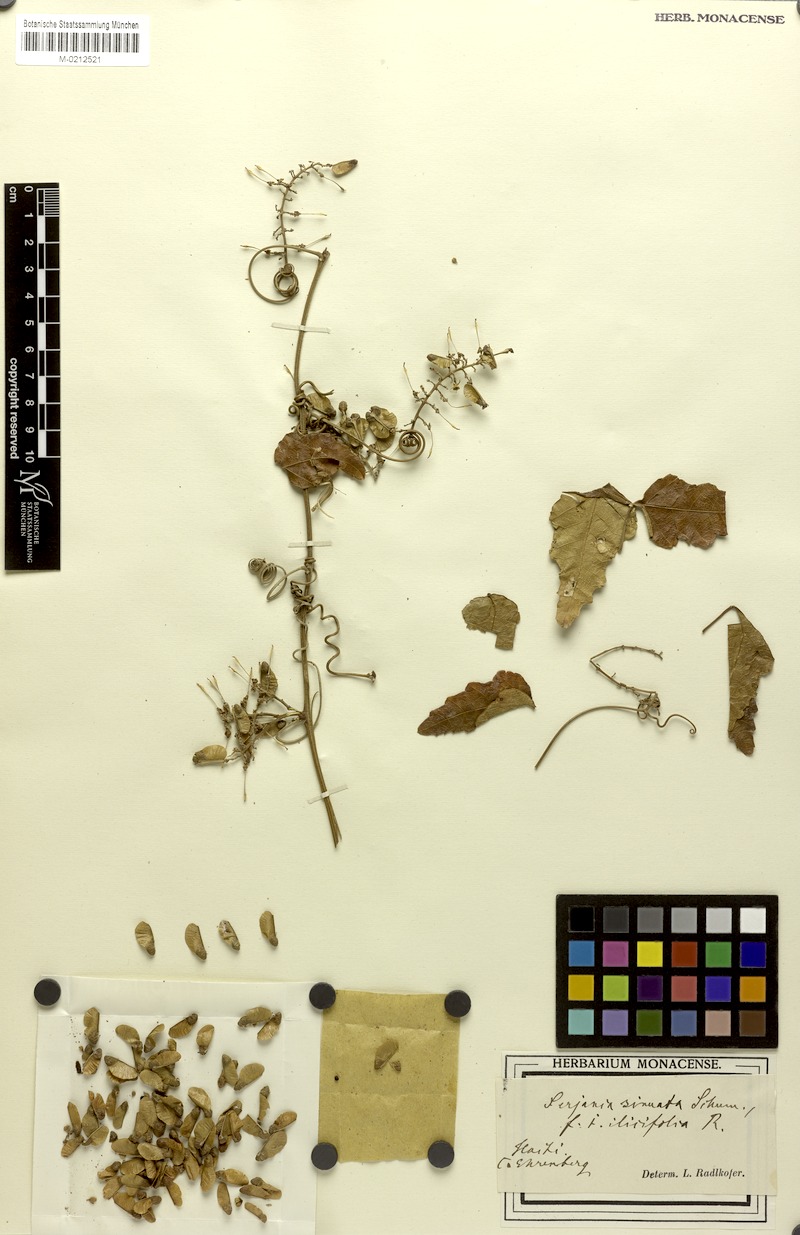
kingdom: Plantae
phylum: Tracheophyta
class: Magnoliopsida
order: Sapindales
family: Sapindaceae
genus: Serjania
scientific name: Serjania seriana
